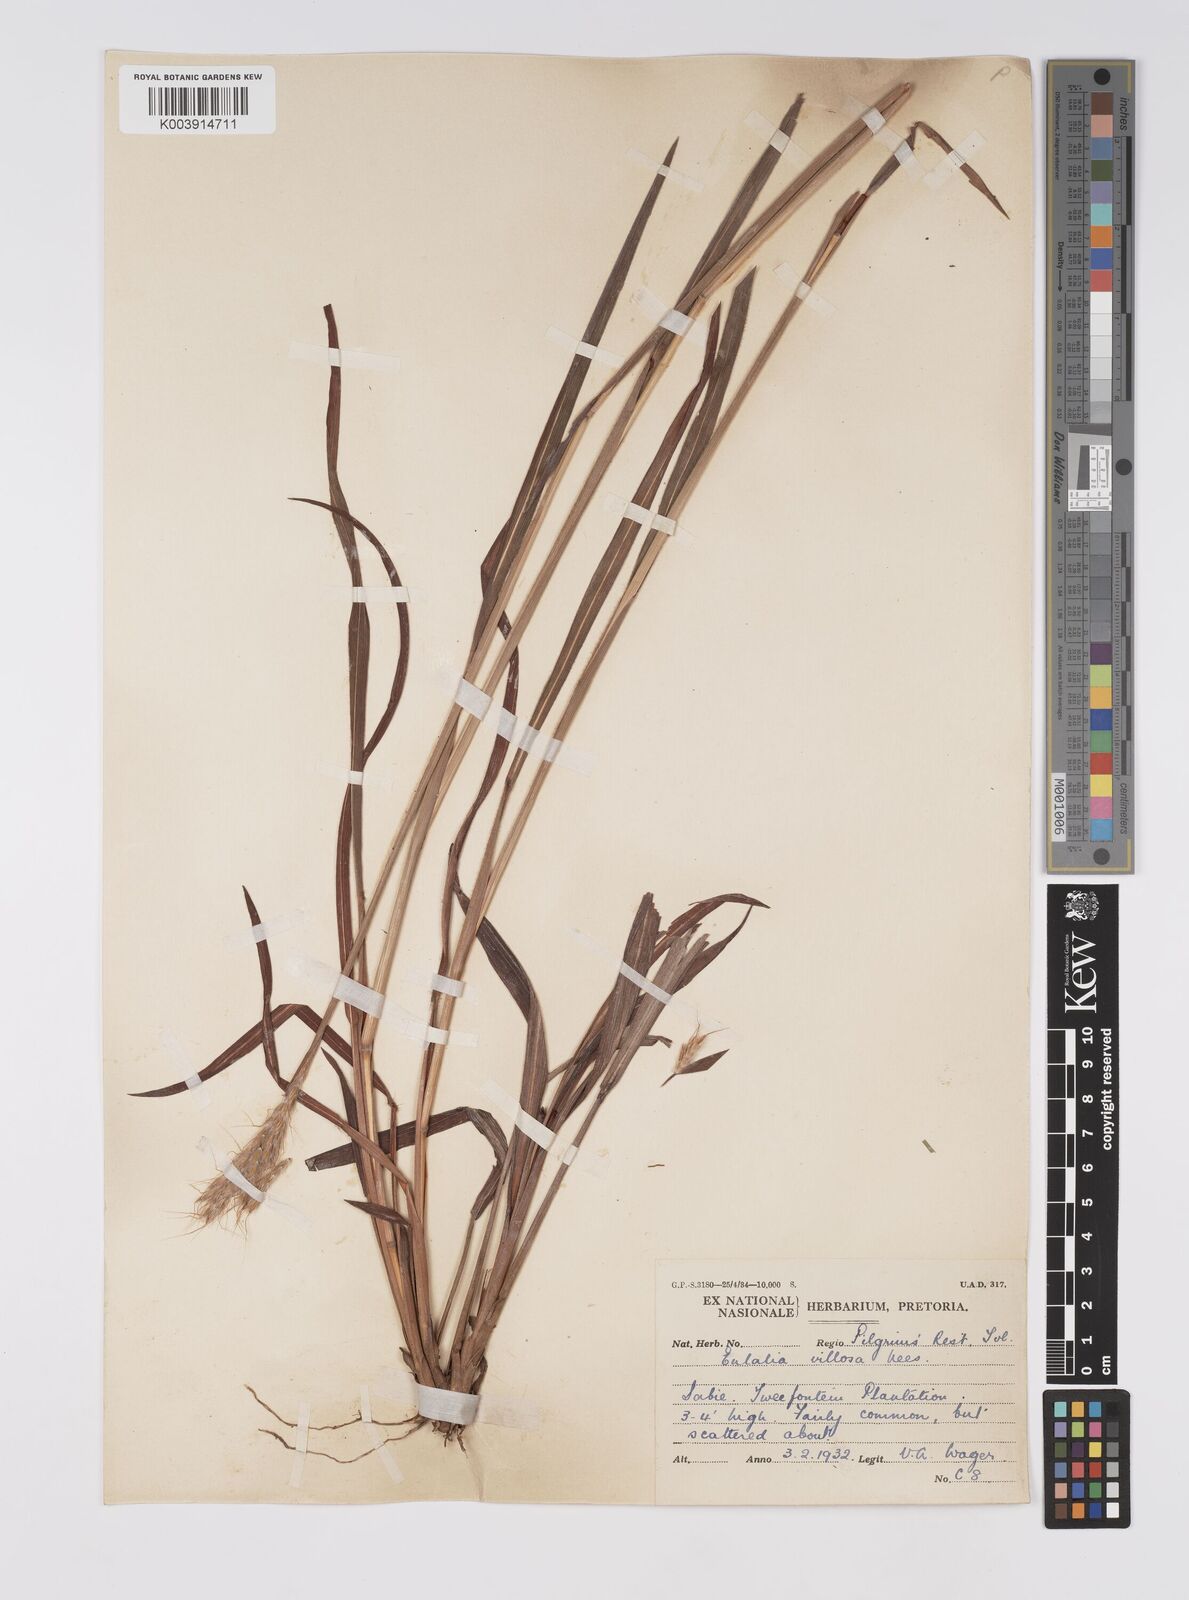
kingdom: Plantae
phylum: Tracheophyta
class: Liliopsida
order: Poales
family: Poaceae
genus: Eulalia
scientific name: Eulalia villosa
